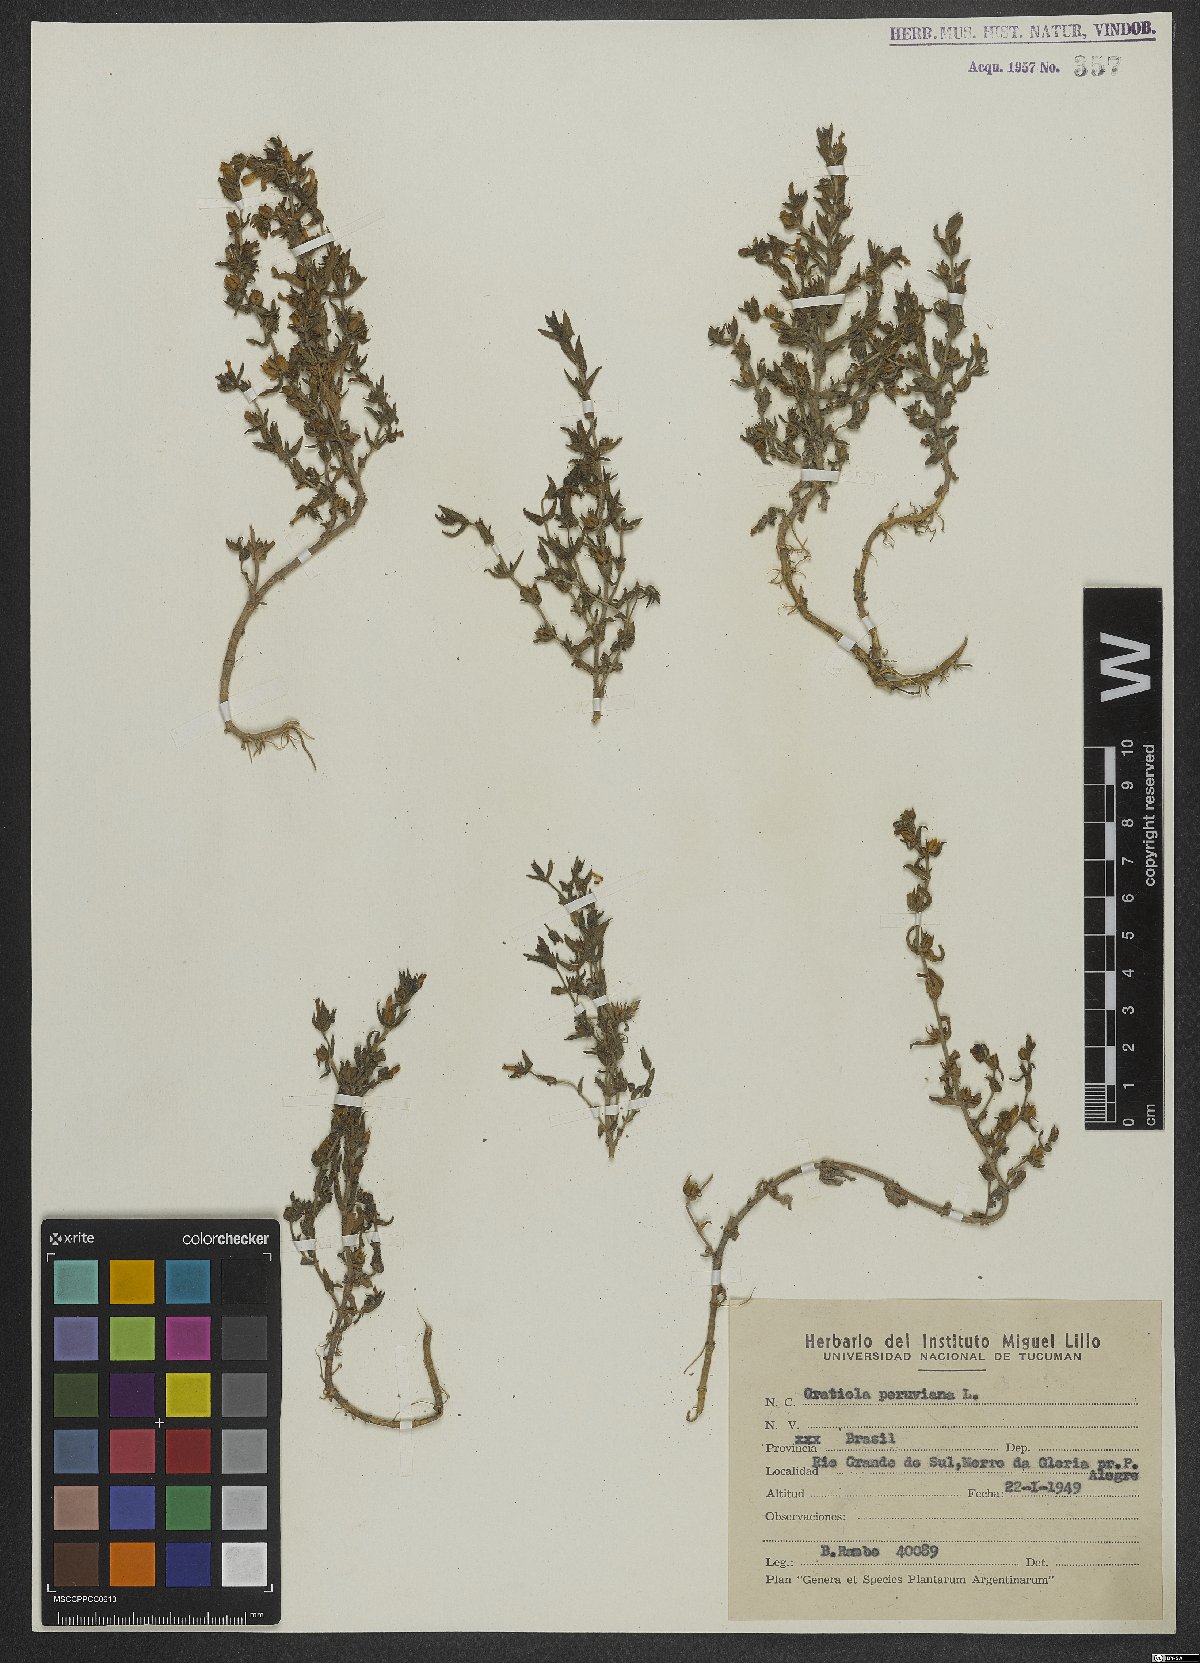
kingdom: Plantae
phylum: Tracheophyta
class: Magnoliopsida
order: Lamiales
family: Plantaginaceae
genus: Gratiola
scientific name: Gratiola peruviana
